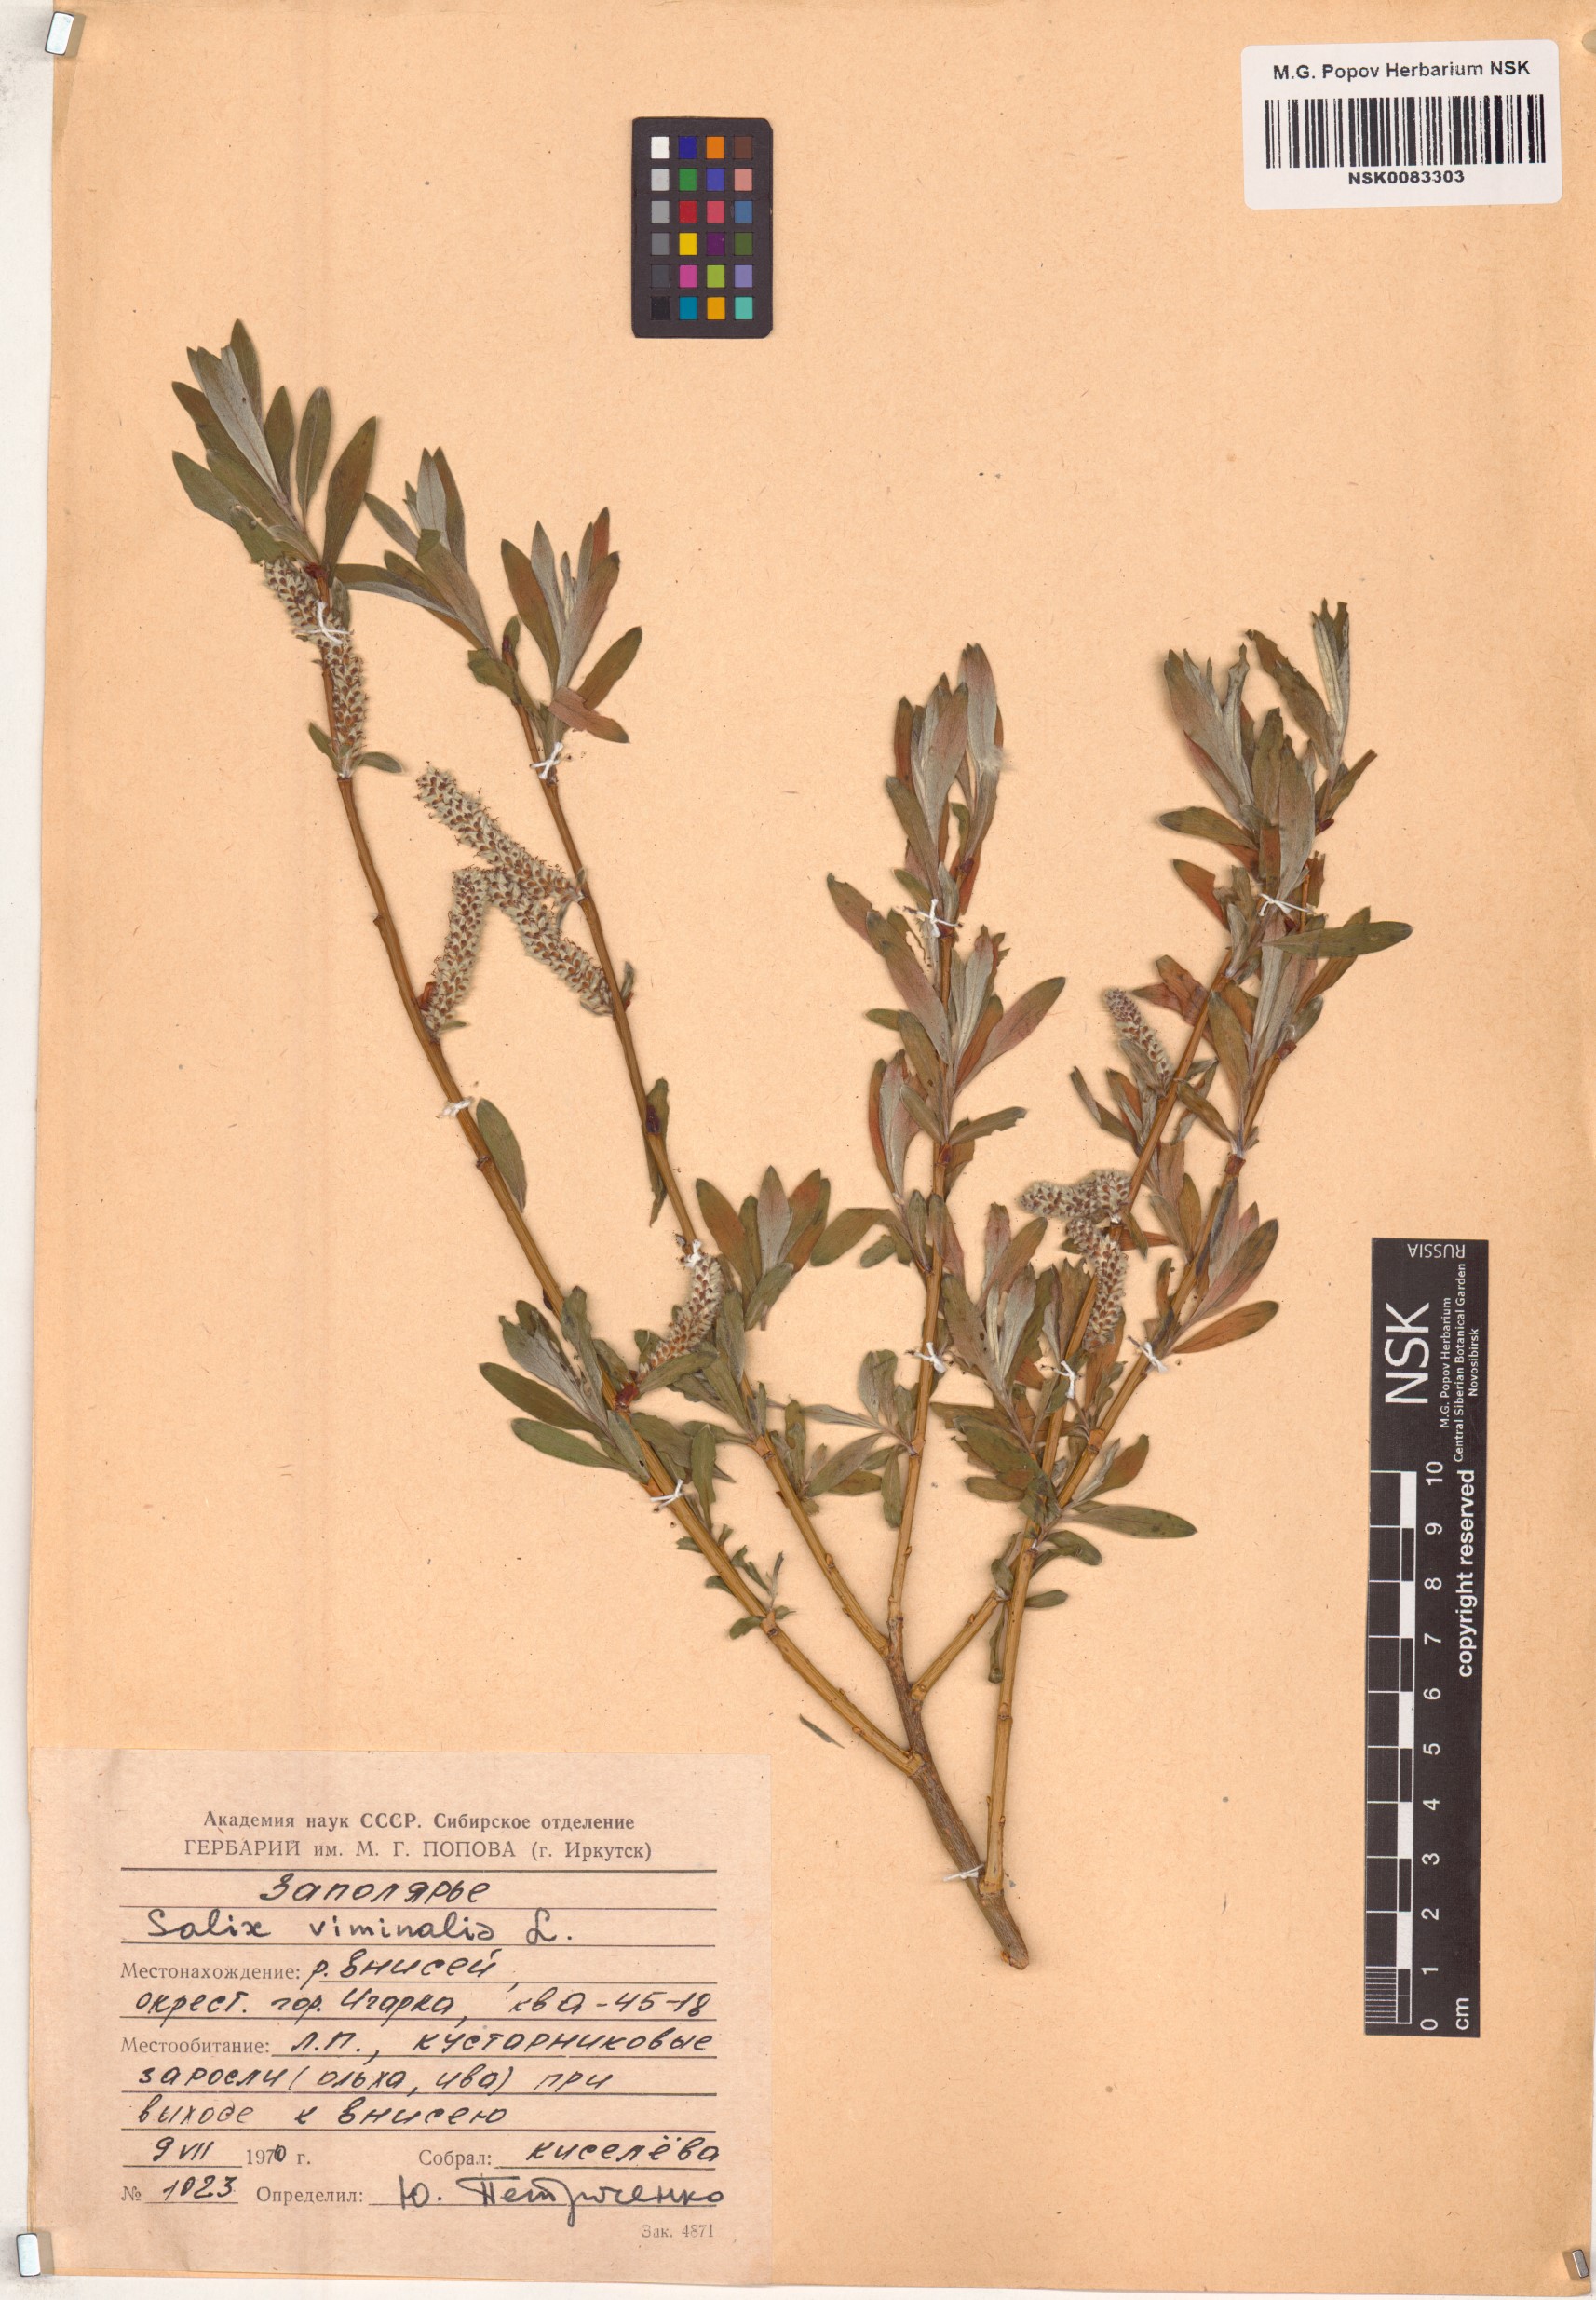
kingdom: Plantae
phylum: Tracheophyta
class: Magnoliopsida
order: Malpighiales
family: Salicaceae
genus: Salix
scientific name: Salix viminalis
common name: Osier
